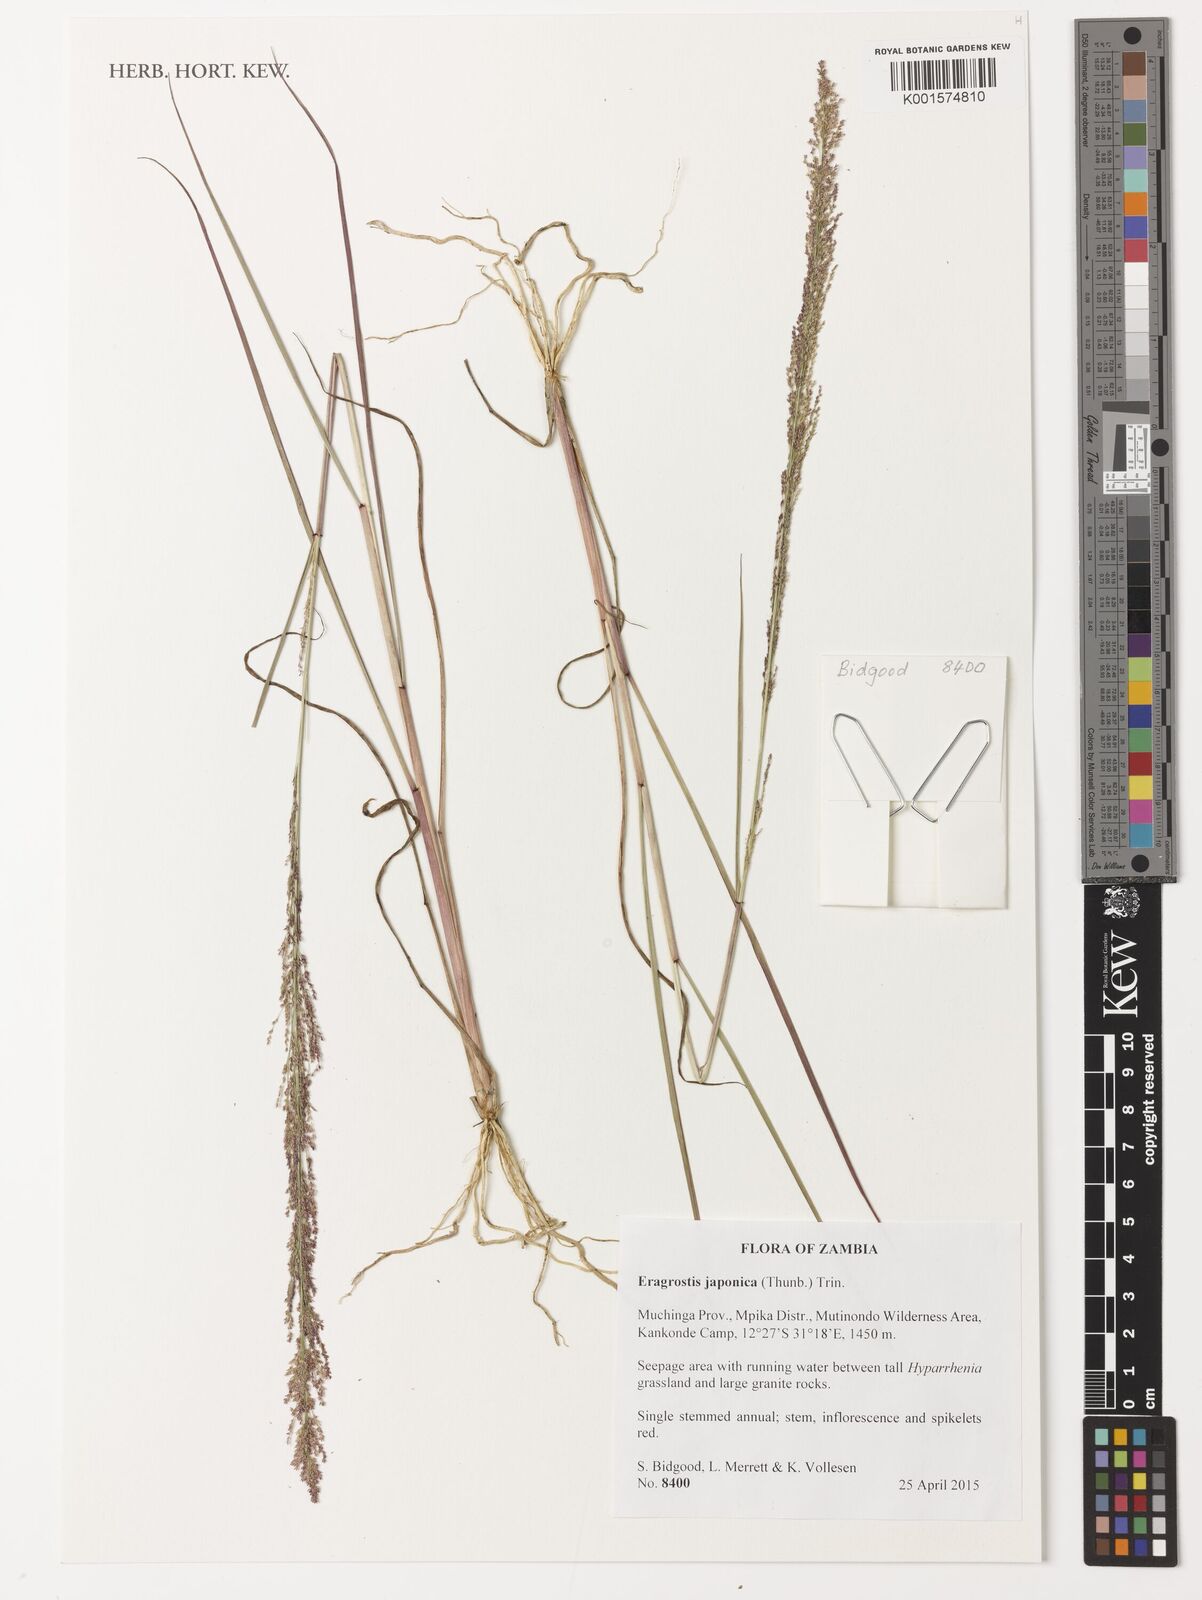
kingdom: Plantae
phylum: Tracheophyta
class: Liliopsida
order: Poales
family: Poaceae
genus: Eragrostis
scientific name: Eragrostis japonica
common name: Pond lovegrass
